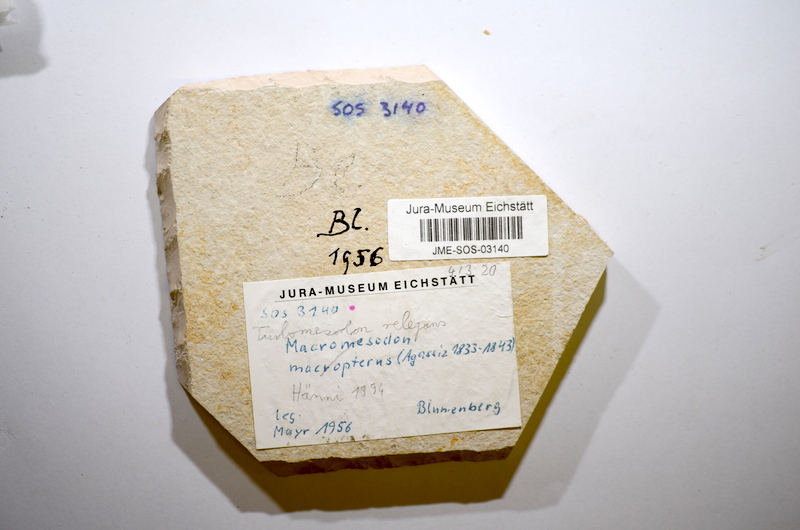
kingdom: Animalia
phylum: Chordata
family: Pycnodontidae
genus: Turbomesodon
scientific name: Turbomesodon relegans
